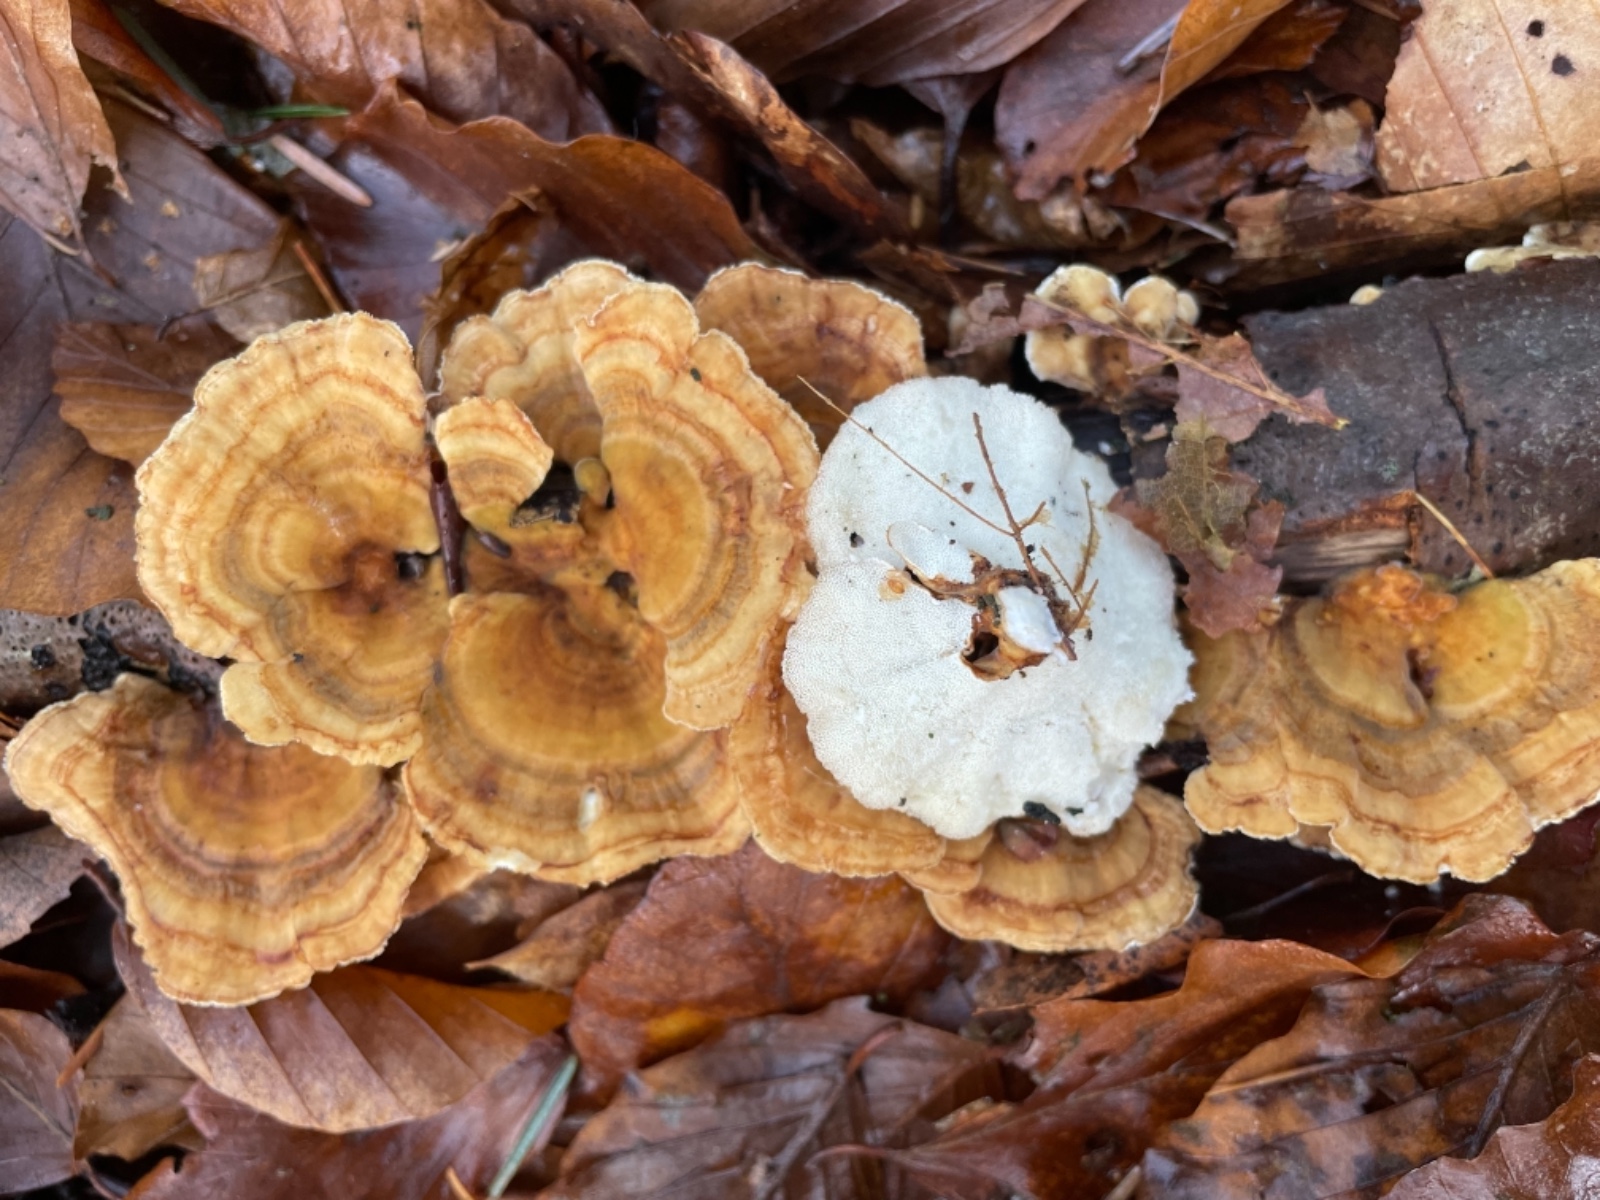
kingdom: Fungi
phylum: Basidiomycota
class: Agaricomycetes
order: Polyporales
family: Polyporaceae
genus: Trametes
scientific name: Trametes
